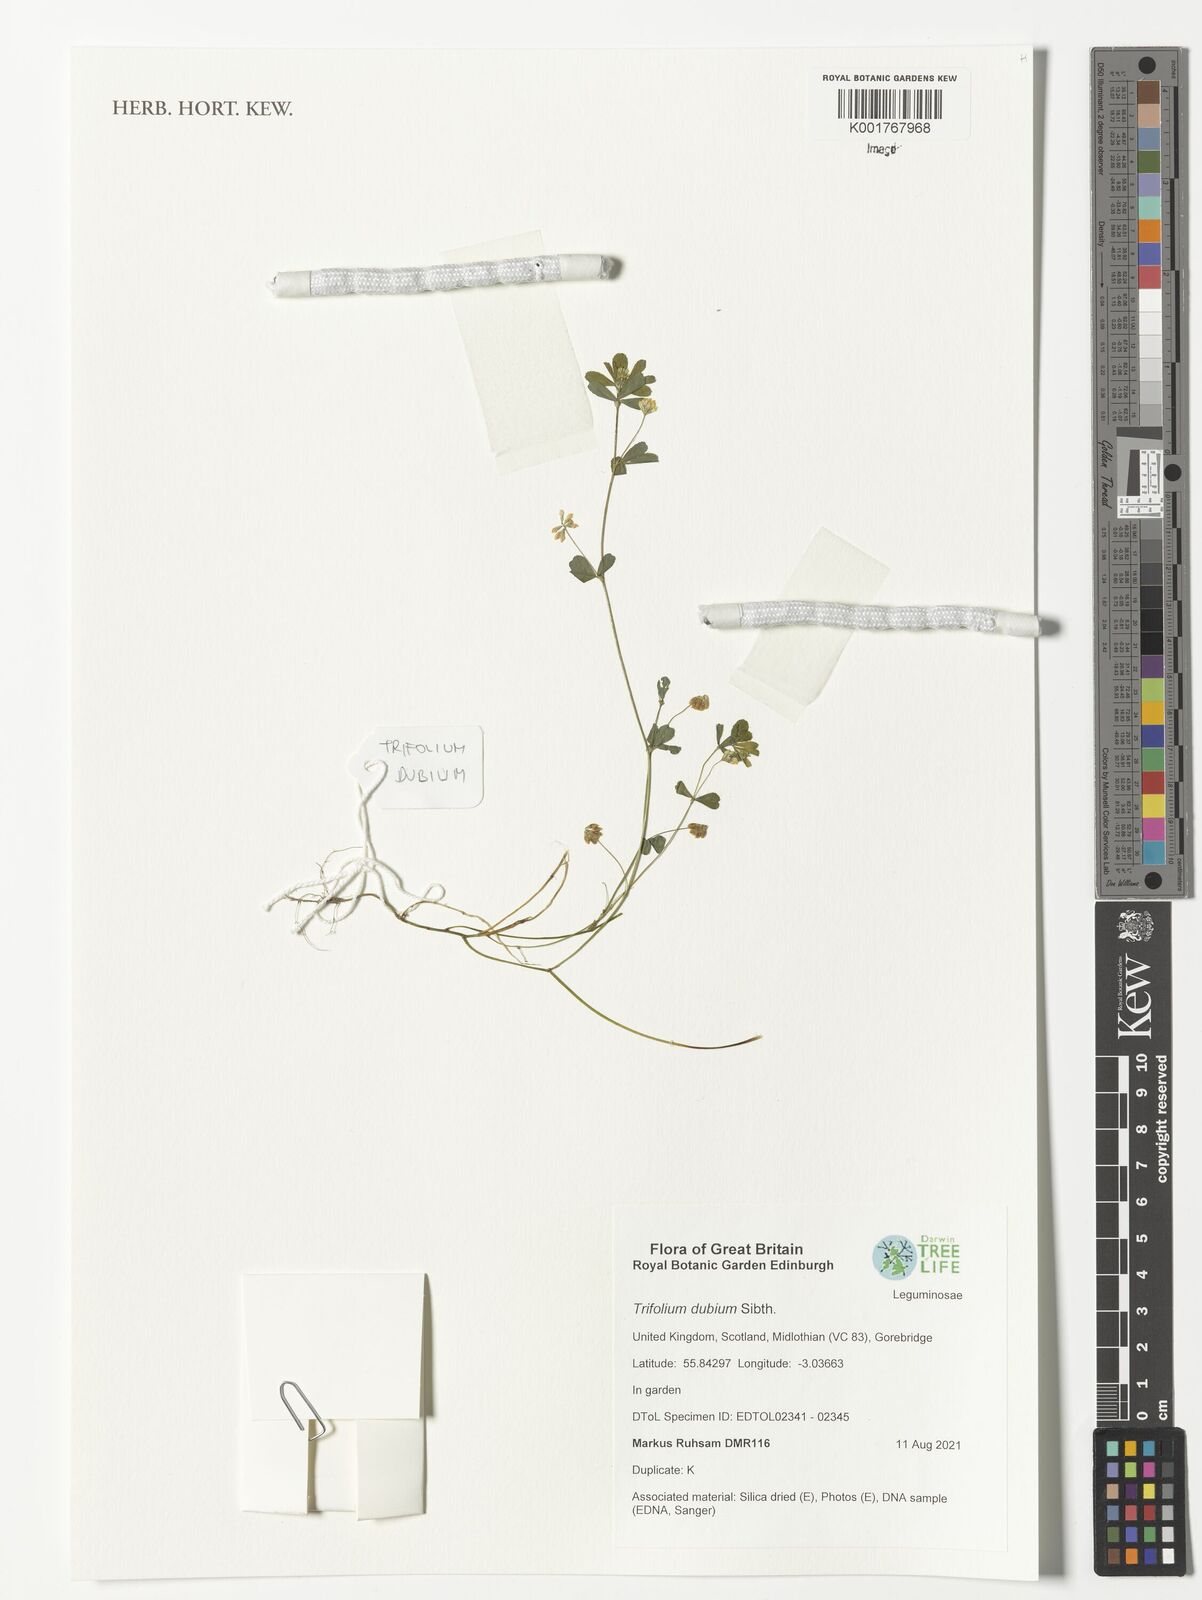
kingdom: Plantae
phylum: Tracheophyta
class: Magnoliopsida
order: Fabales
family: Fabaceae
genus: Trifolium
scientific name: Trifolium dubium
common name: Suckling clover
